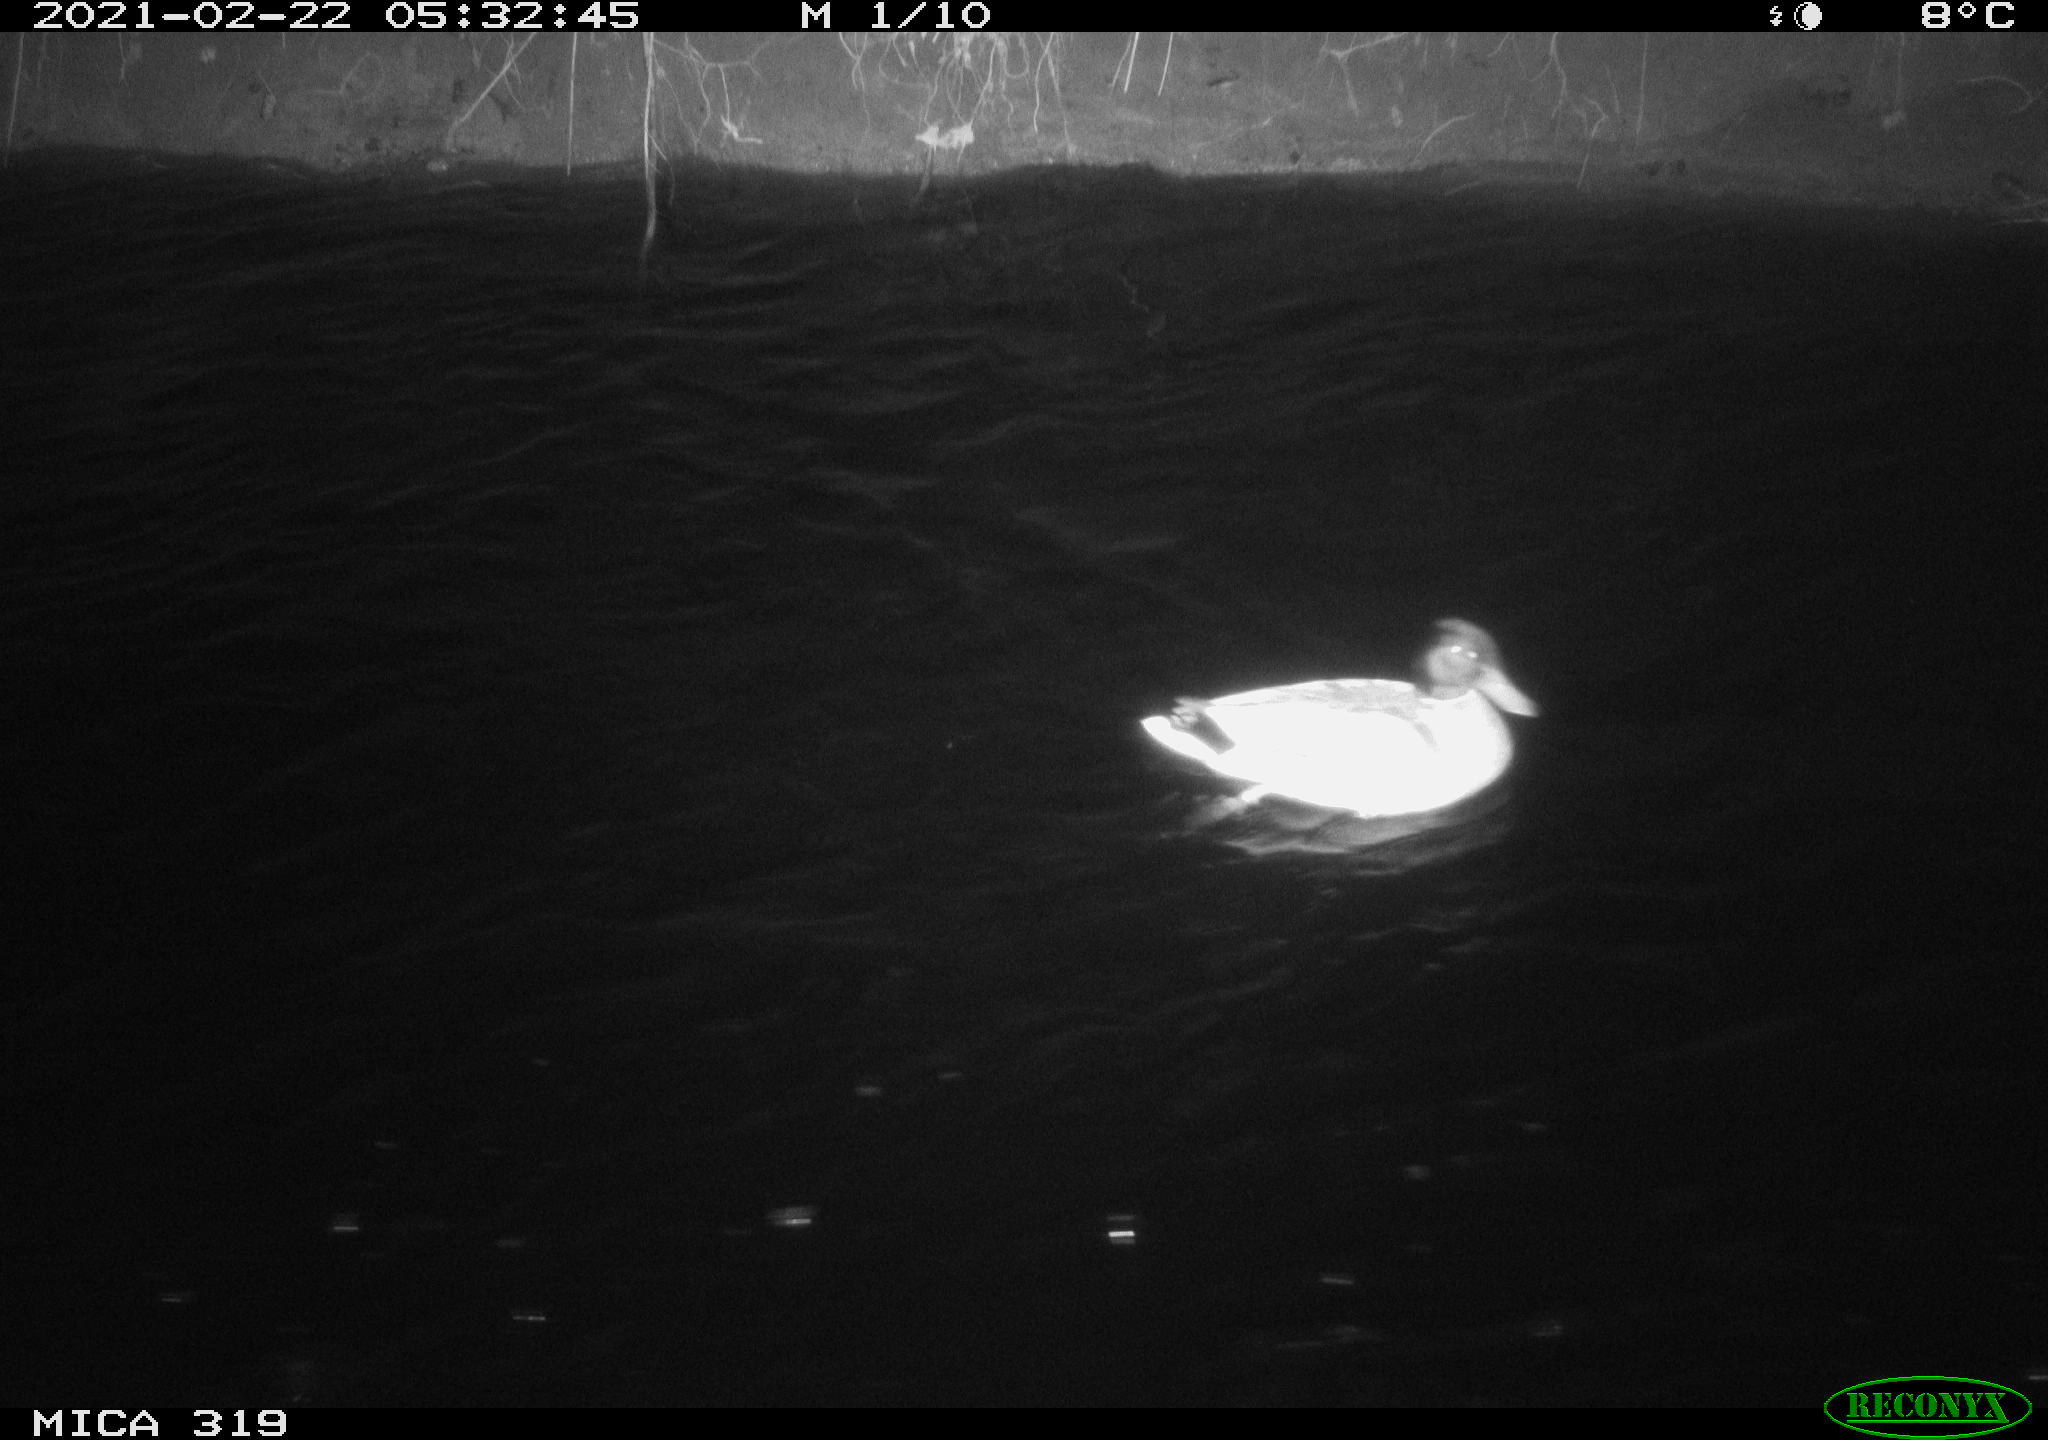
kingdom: Animalia
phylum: Chordata
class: Aves
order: Anseriformes
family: Anatidae
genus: Anas
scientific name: Anas platyrhynchos
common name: Mallard
